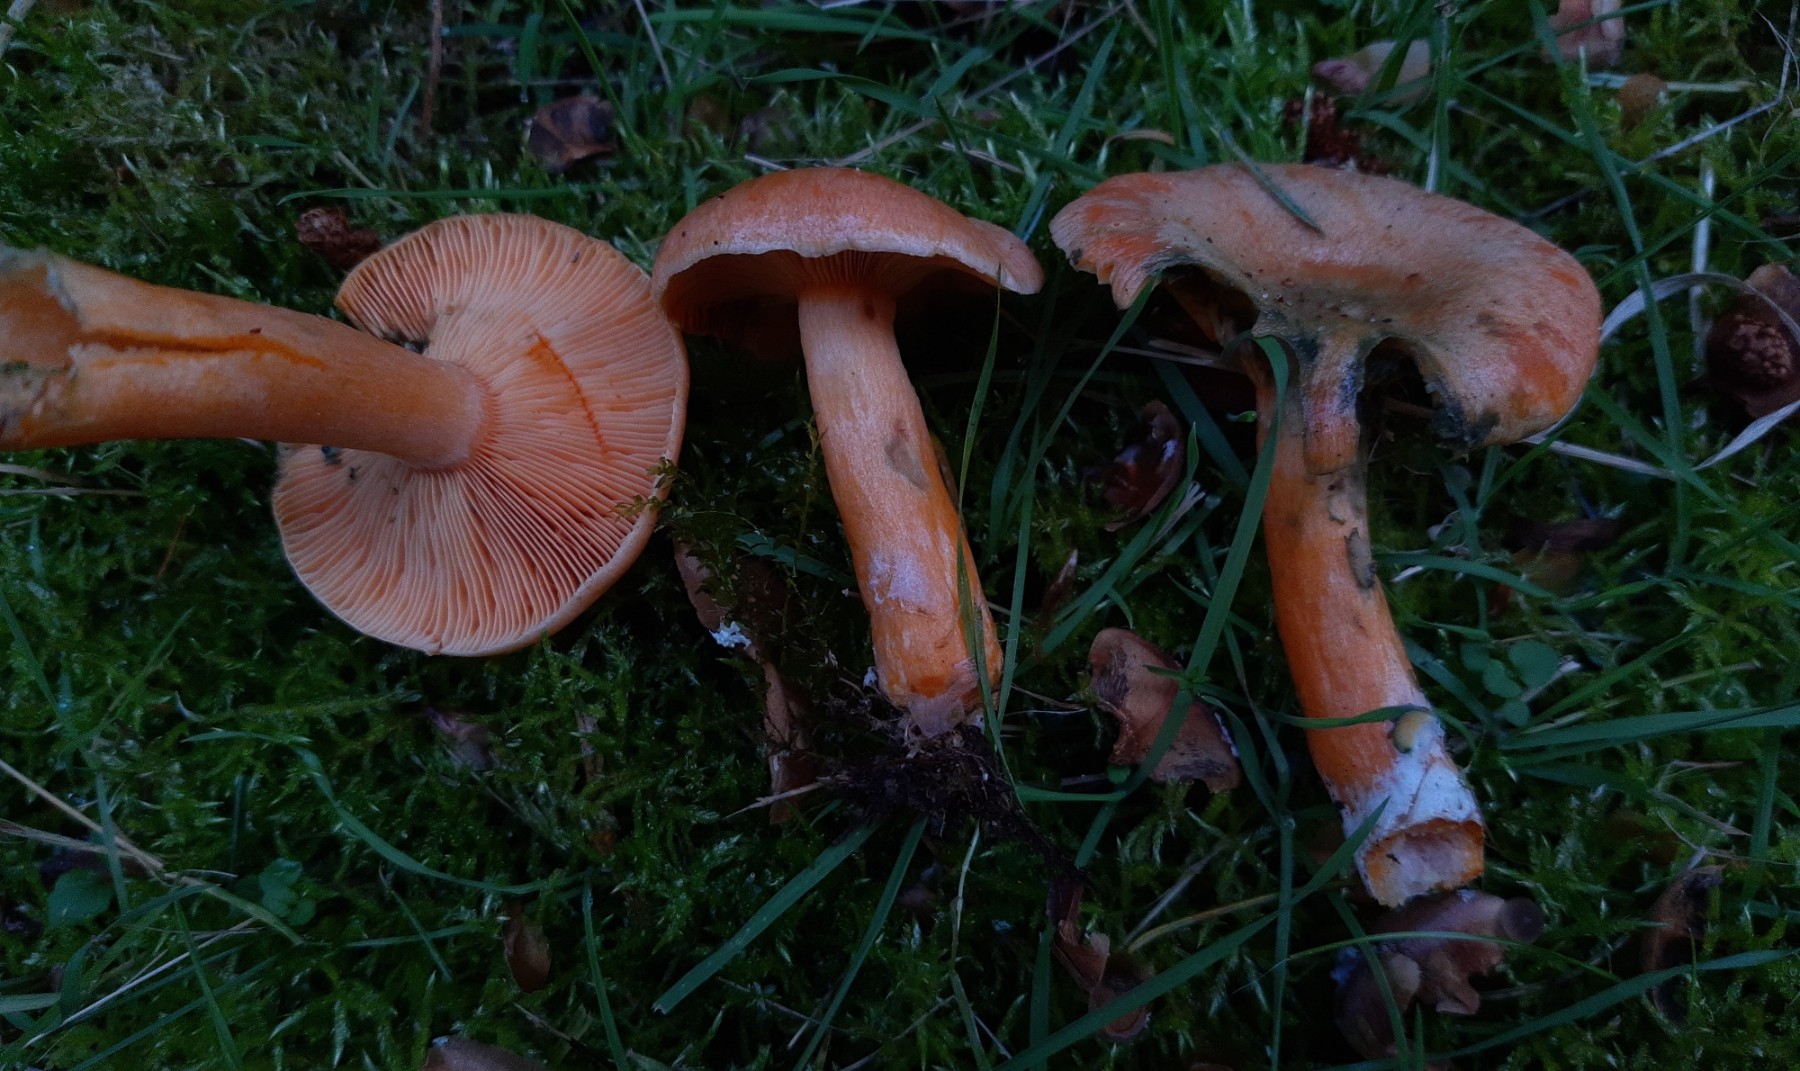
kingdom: Fungi
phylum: Basidiomycota
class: Agaricomycetes
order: Russulales
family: Russulaceae
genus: Lactarius
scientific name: Lactarius deterrimus
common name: gran-mælkehat
